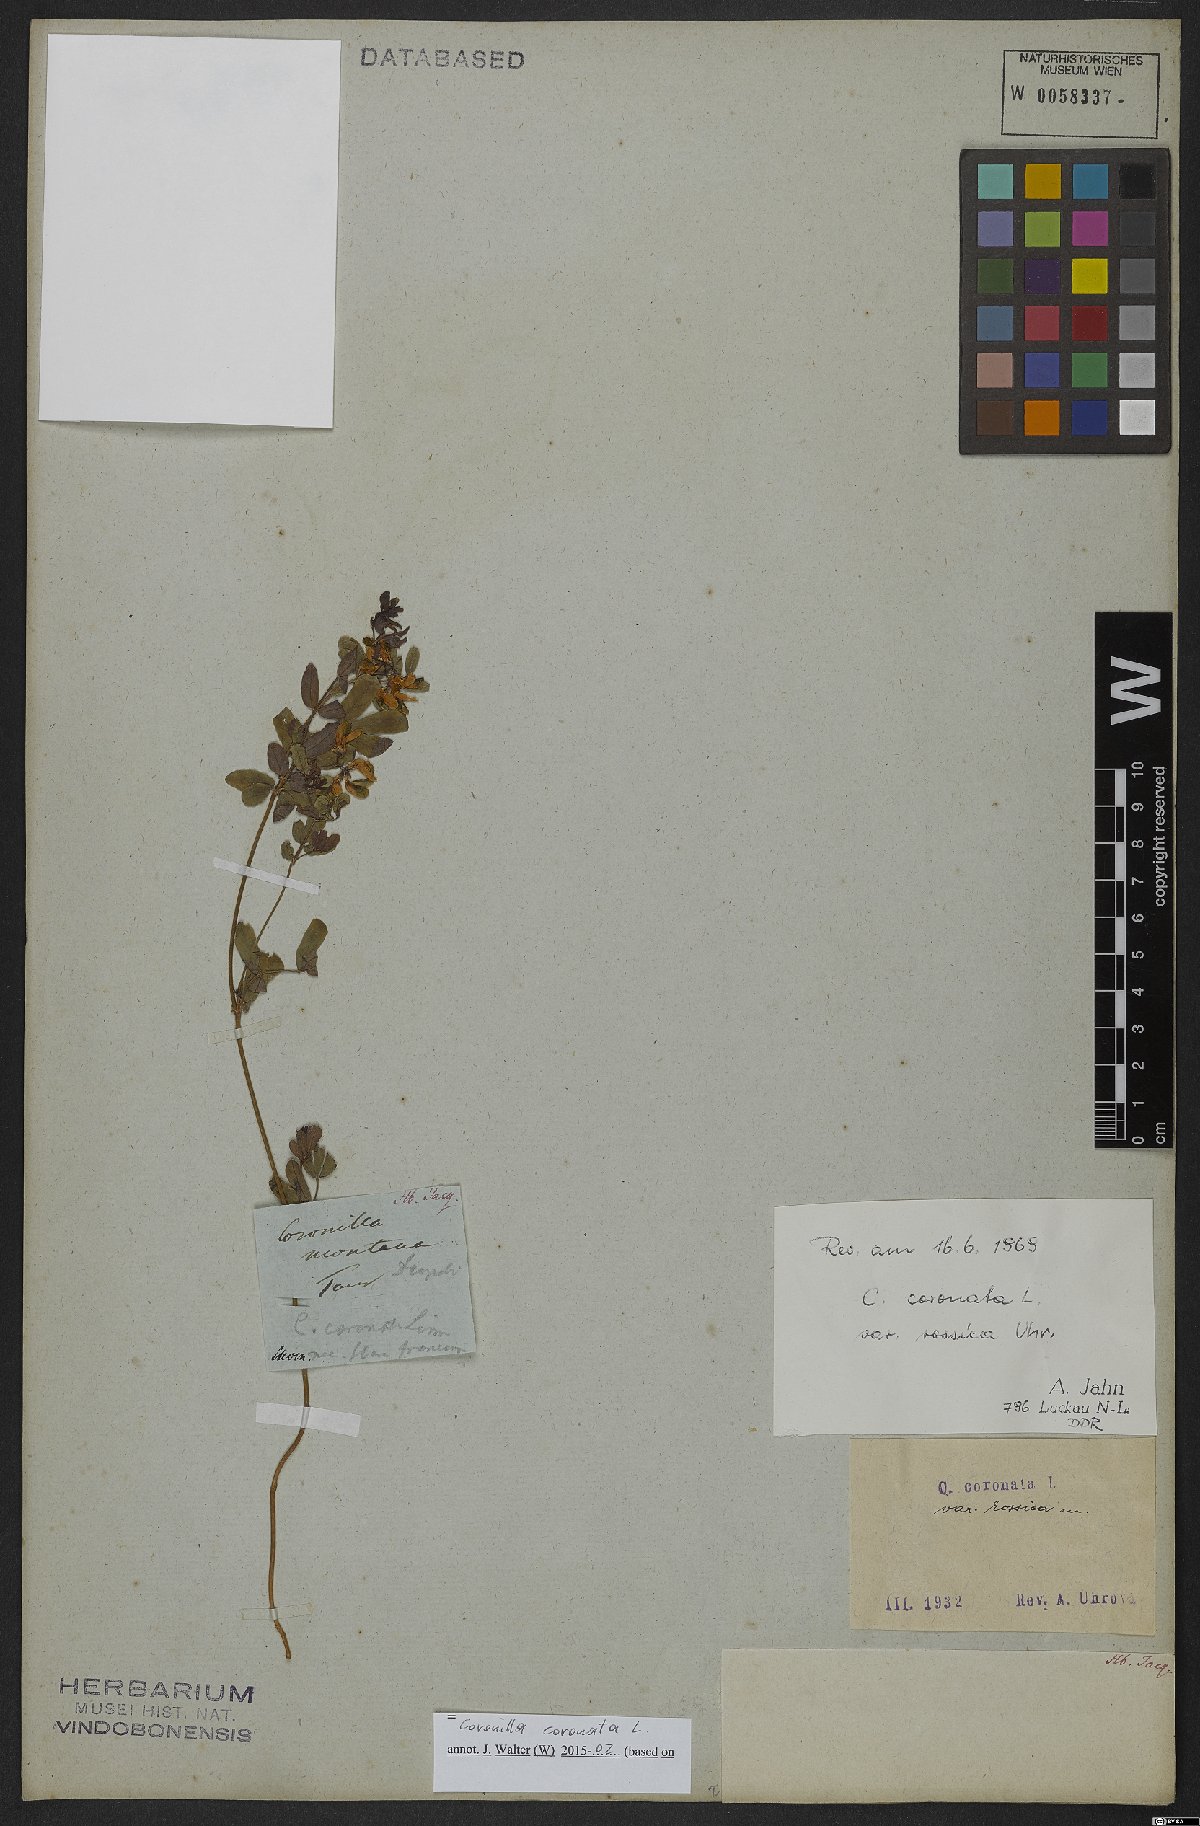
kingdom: Plantae
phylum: Tracheophyta
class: Magnoliopsida
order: Fabales
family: Fabaceae
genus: Coronilla
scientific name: Coronilla coronata
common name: Scorpion-vetch
